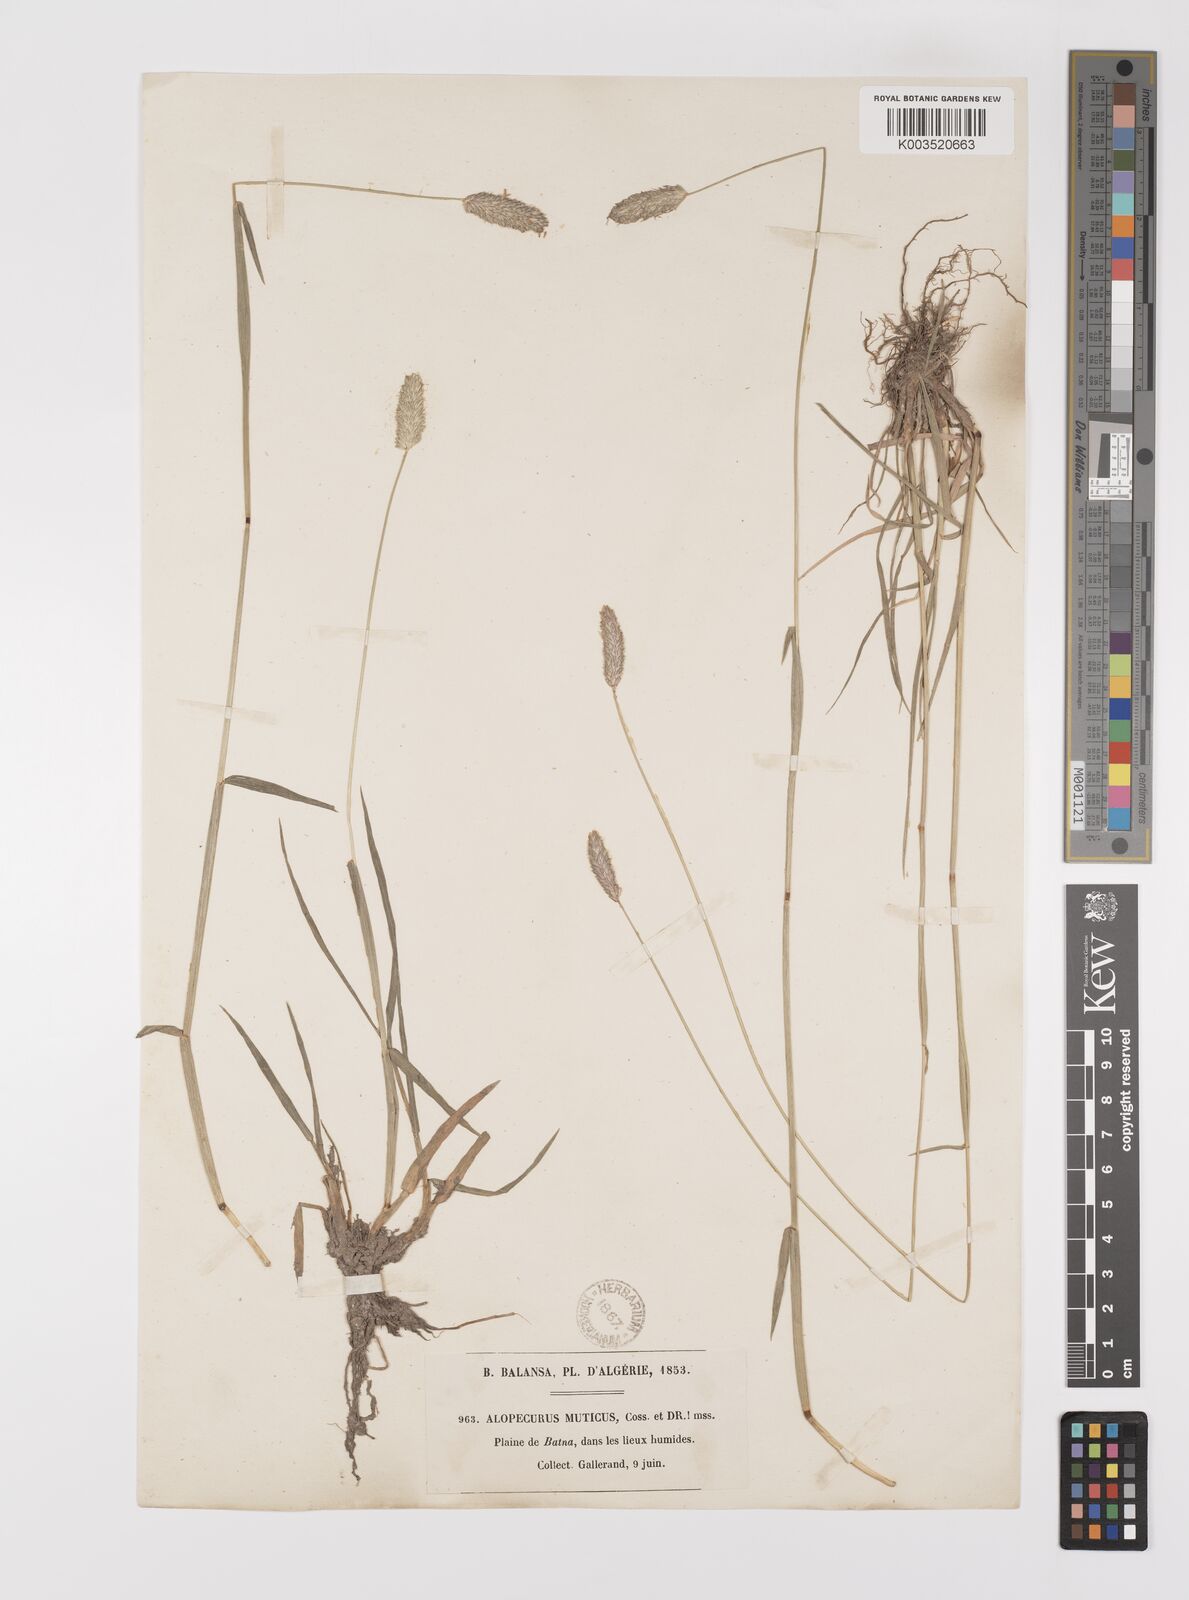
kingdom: Plantae
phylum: Tracheophyta
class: Liliopsida
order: Poales
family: Poaceae
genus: Alopecurus
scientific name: Alopecurus pratensis
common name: Meadow foxtail
